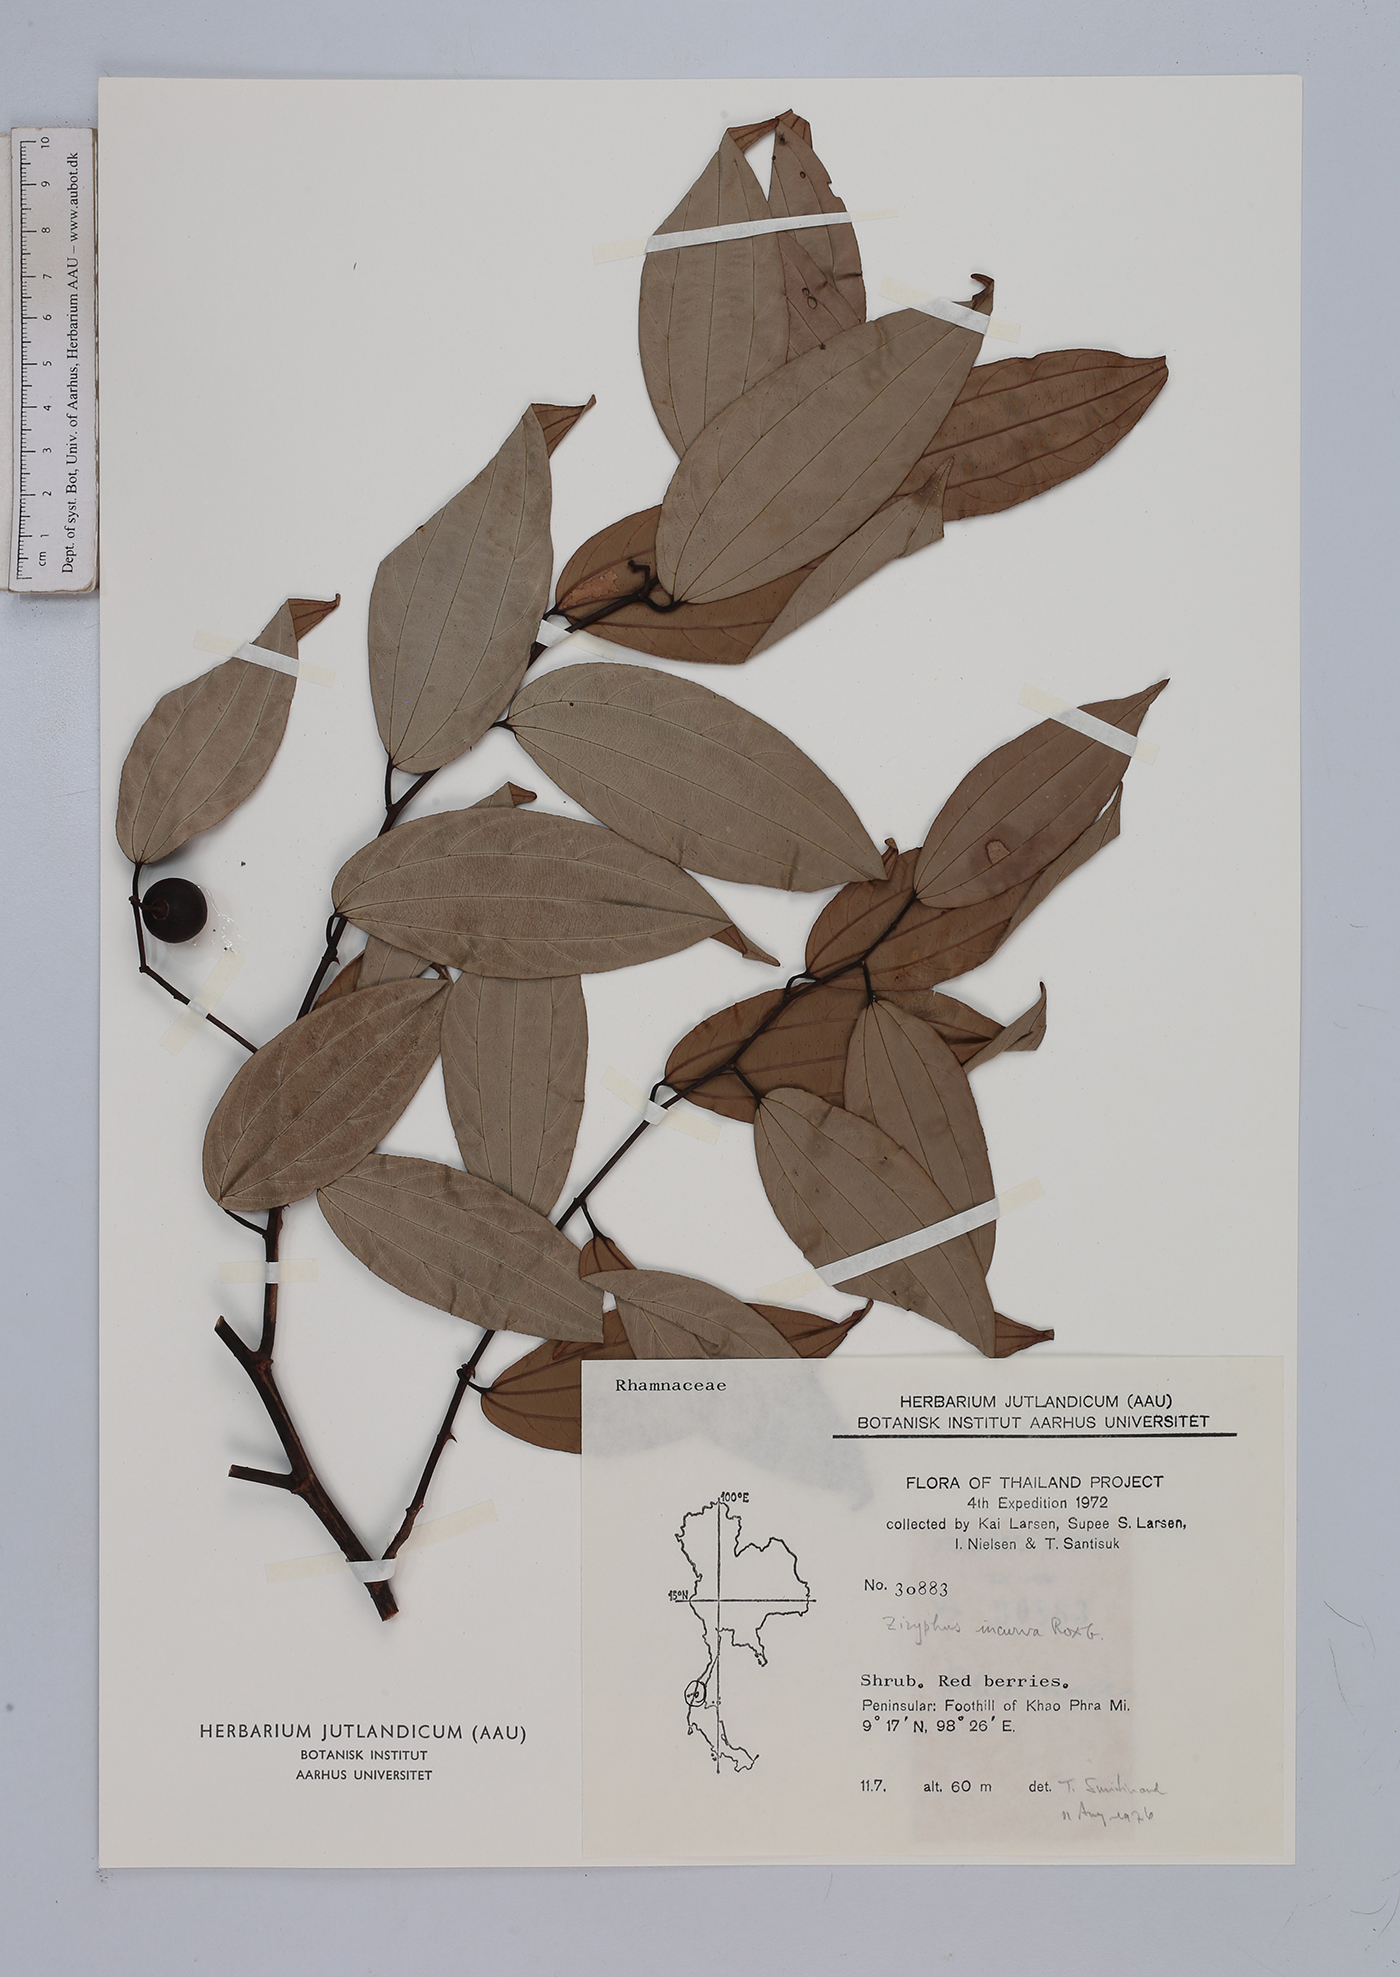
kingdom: Plantae
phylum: Tracheophyta
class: Magnoliopsida
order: Rosales
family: Rhamnaceae
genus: Ziziphus
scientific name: Ziziphus incurva
